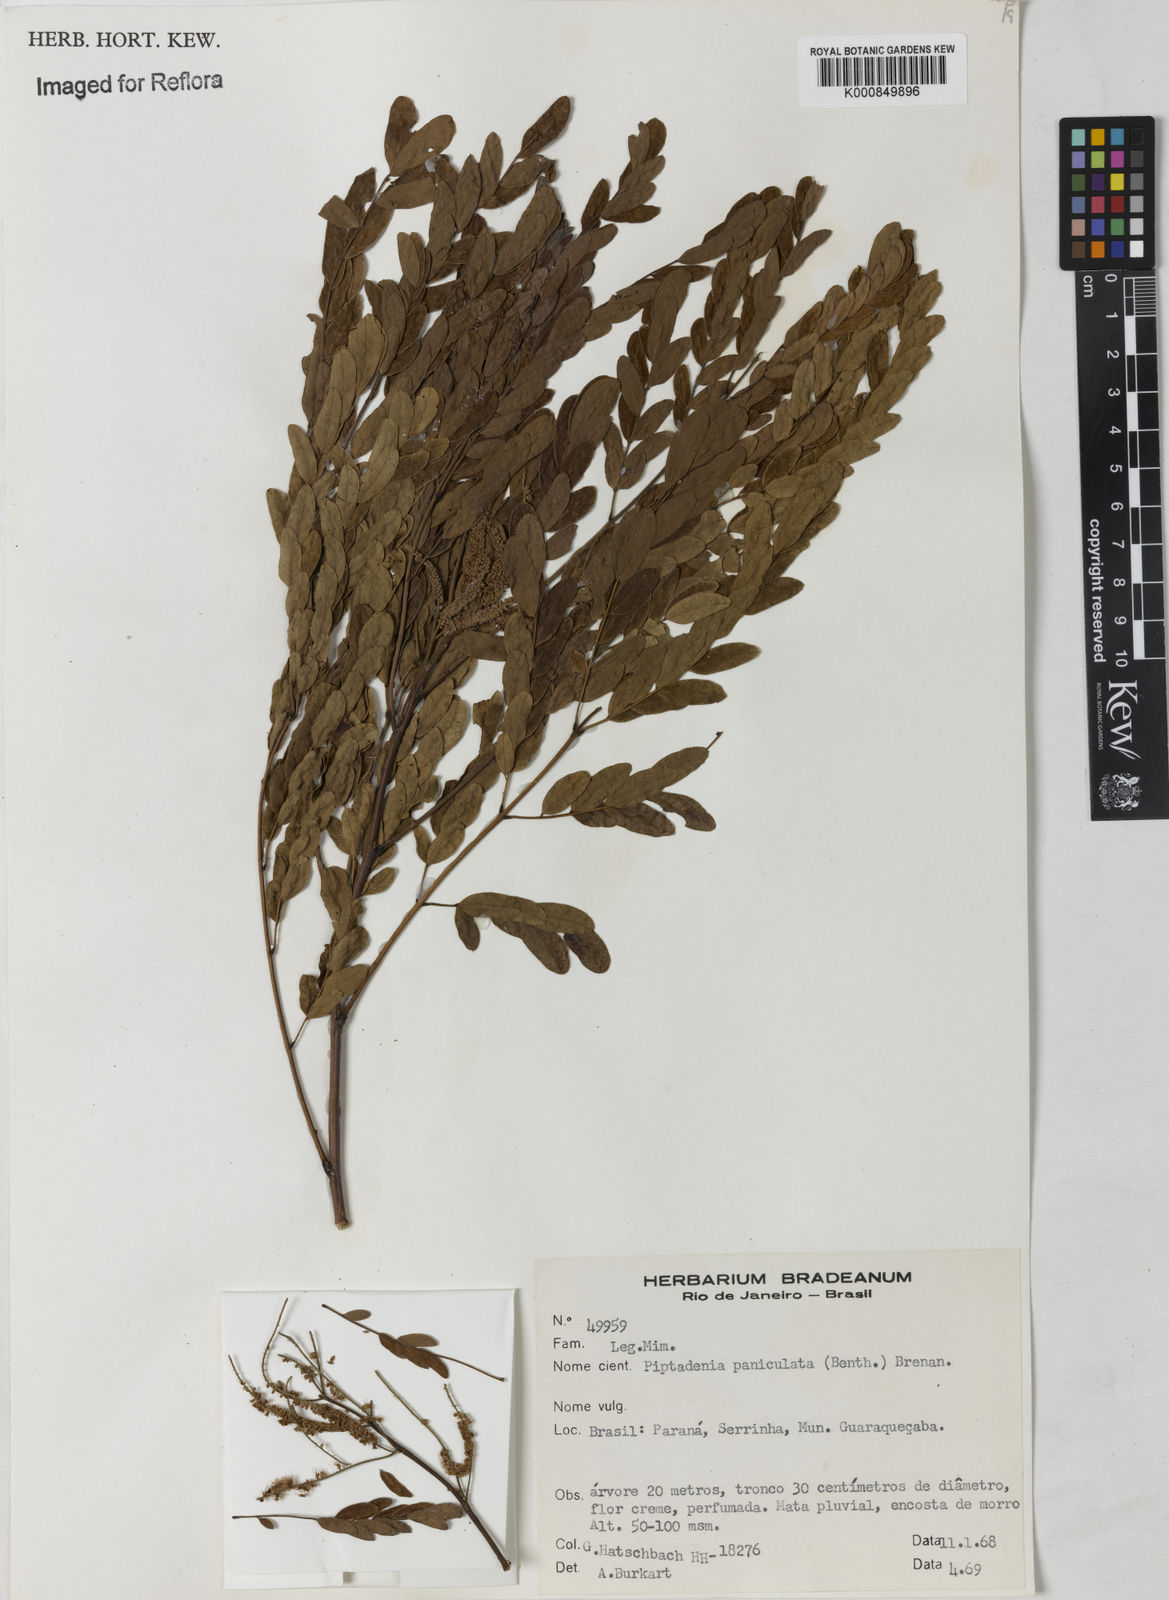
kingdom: Plantae
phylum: Tracheophyta
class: Magnoliopsida
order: Fabales
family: Fabaceae
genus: Piptadenia
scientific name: Piptadenia paniculata
